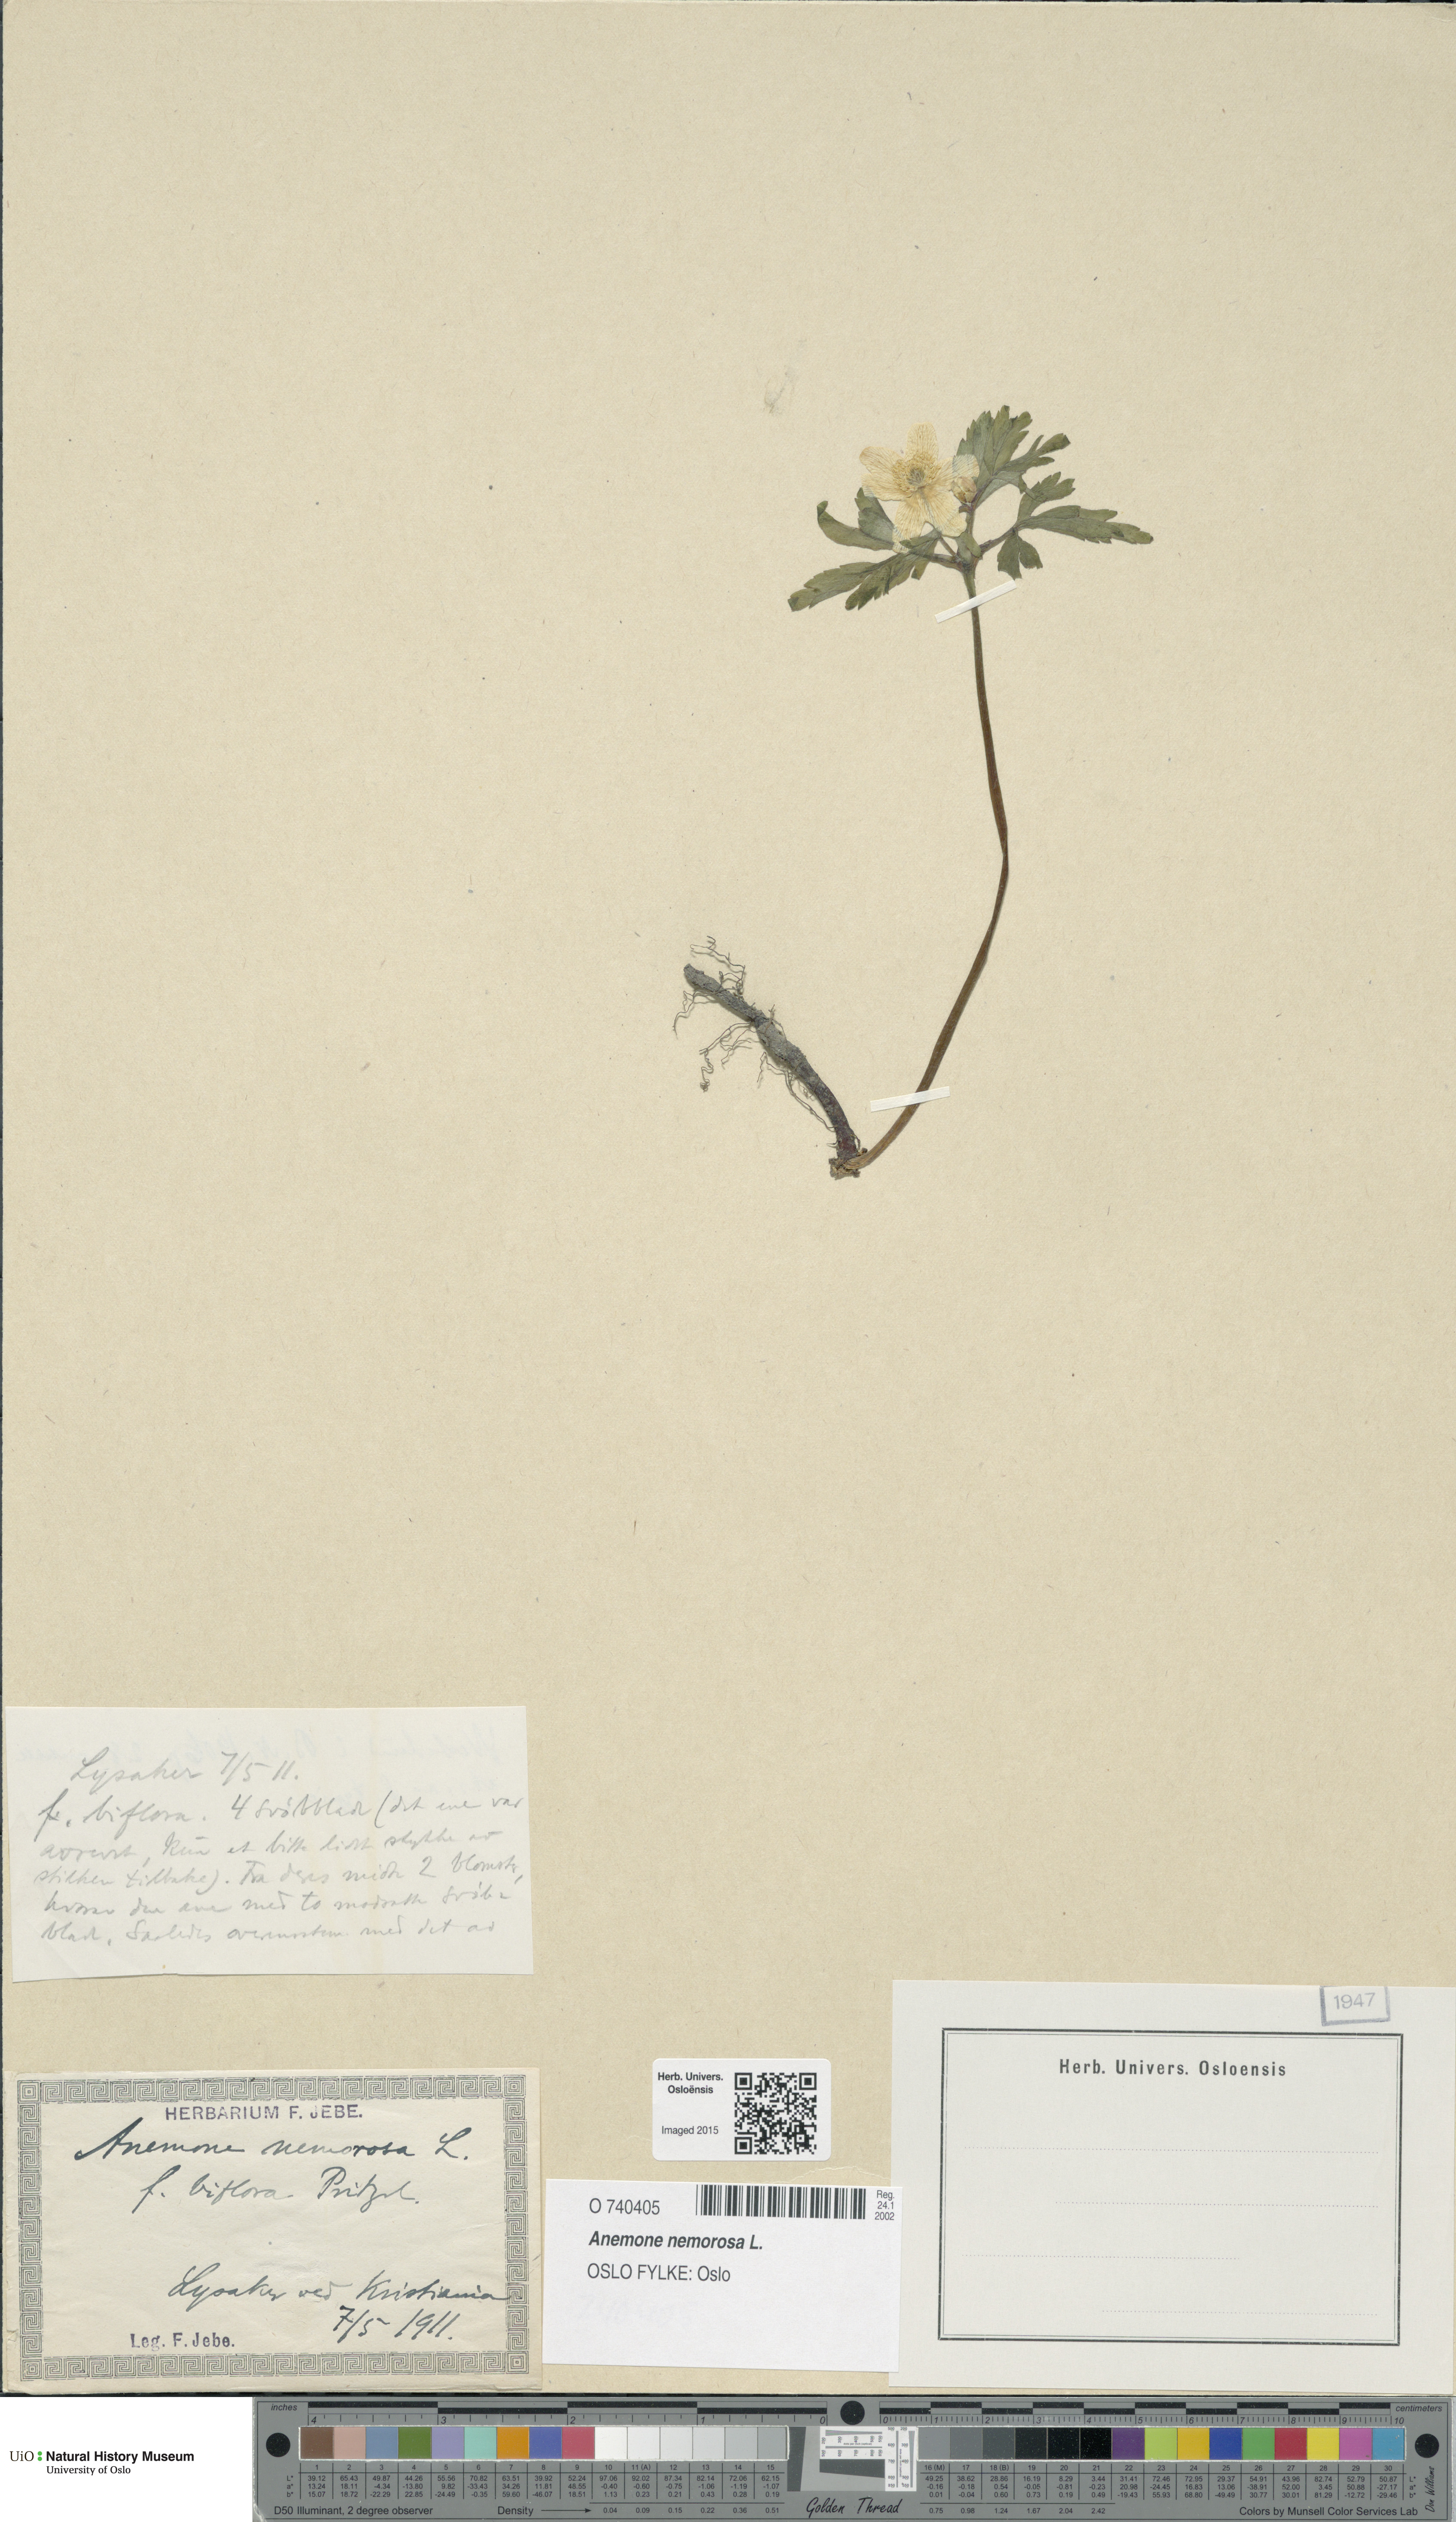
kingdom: Plantae
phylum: Tracheophyta
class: Magnoliopsida
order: Ranunculales
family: Ranunculaceae
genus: Anemone
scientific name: Anemone nemorosa
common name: Wood anemone
